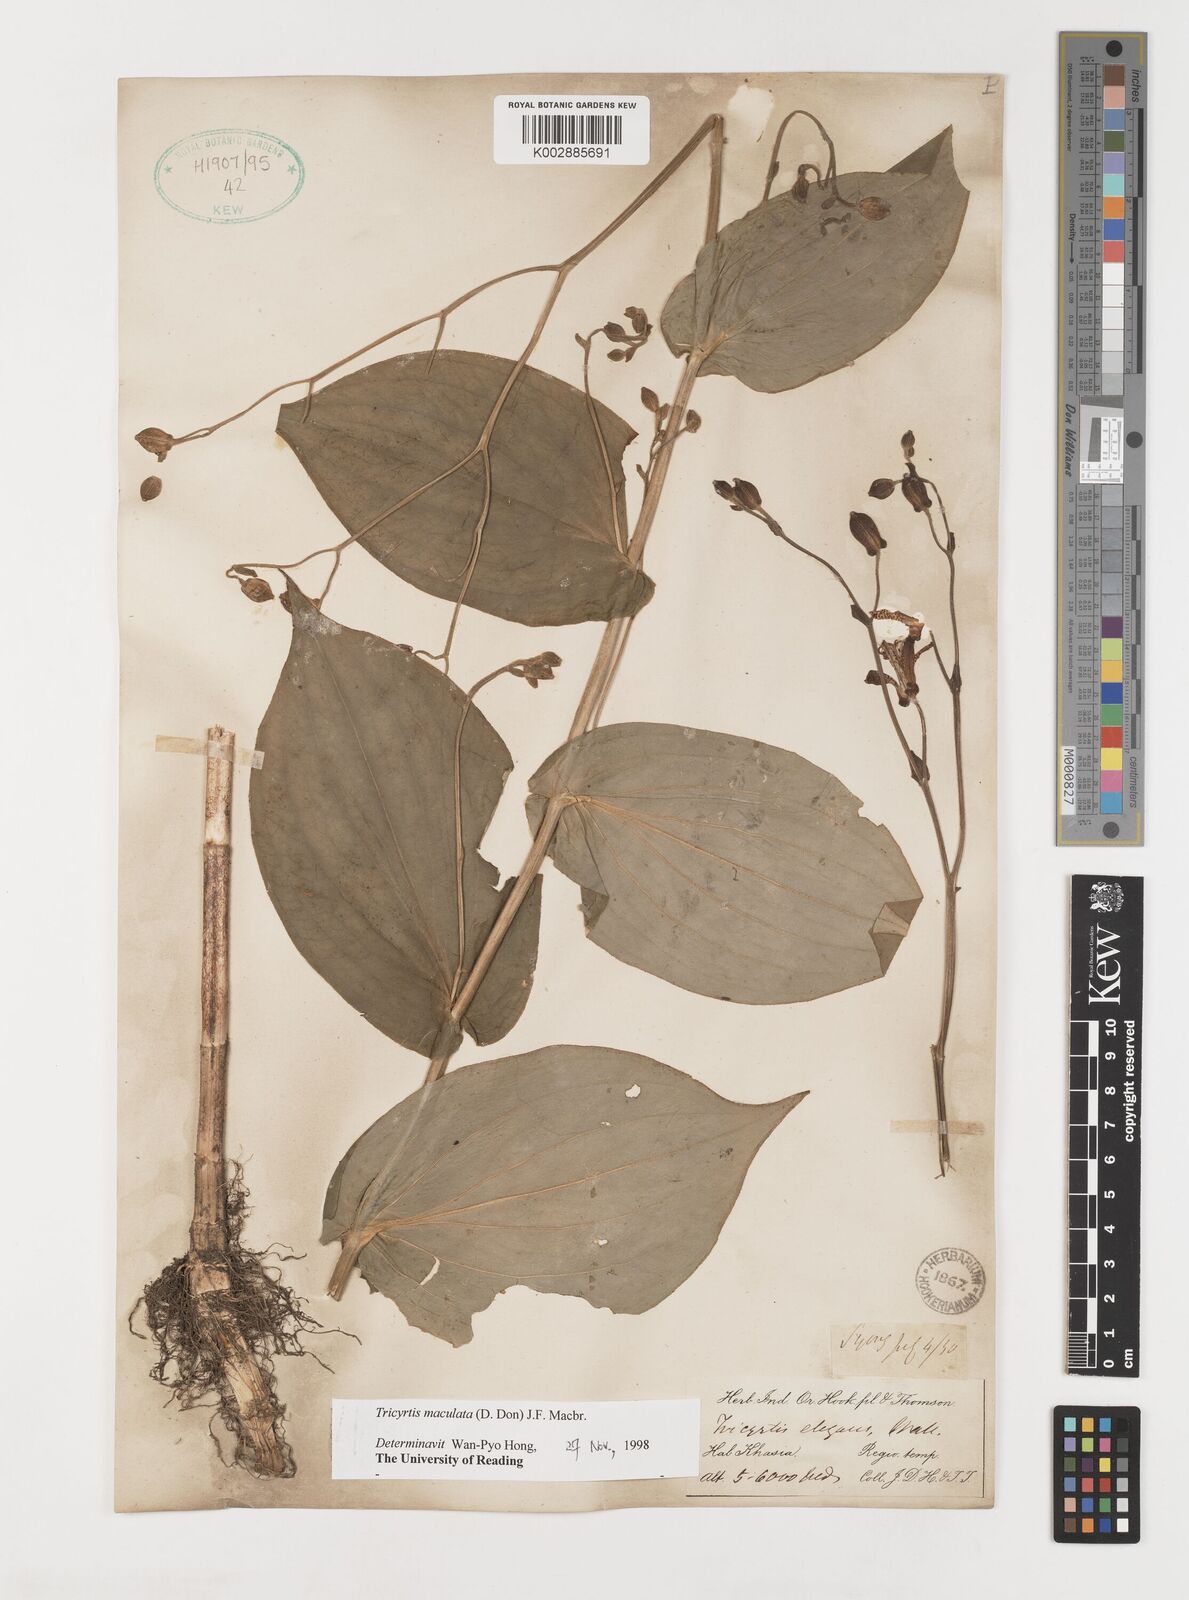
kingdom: Plantae
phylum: Tracheophyta
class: Liliopsida
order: Liliales
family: Liliaceae
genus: Tricyrtis
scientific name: Tricyrtis maculata
